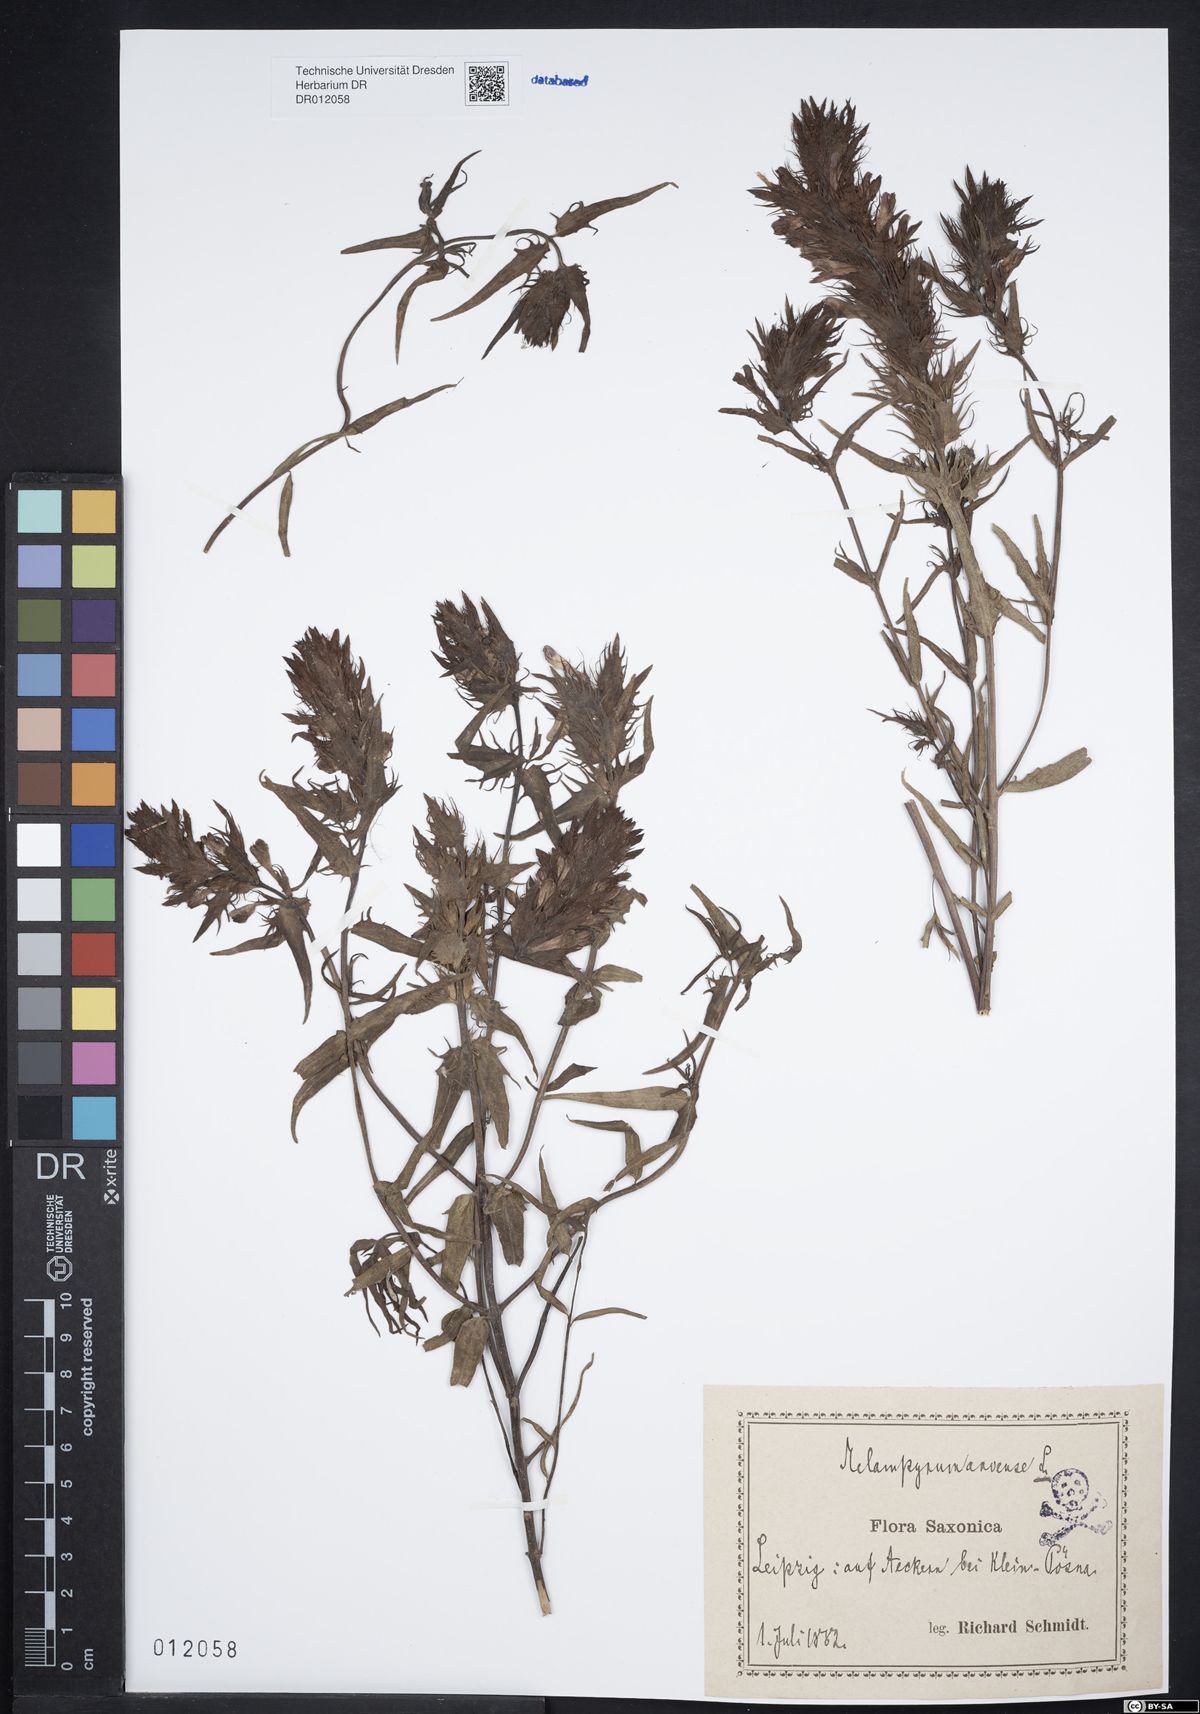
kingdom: Plantae
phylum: Tracheophyta
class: Magnoliopsida
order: Lamiales
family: Orobanchaceae
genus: Melampyrum
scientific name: Melampyrum arvense
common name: Field cow-wheat
